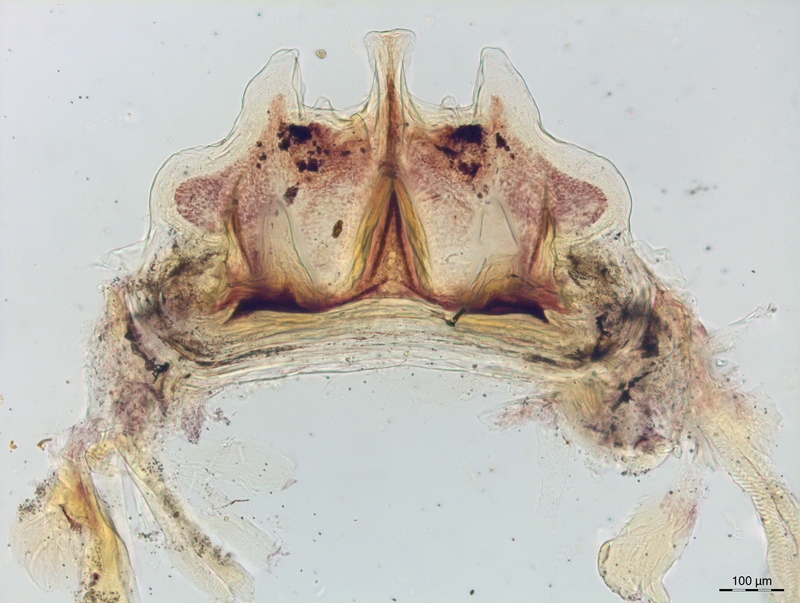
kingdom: Animalia
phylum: Arthropoda
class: Diplopoda
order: Chordeumatida
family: Craspedosomatidae
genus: Craspedosoma
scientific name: Craspedosoma alemannicum
